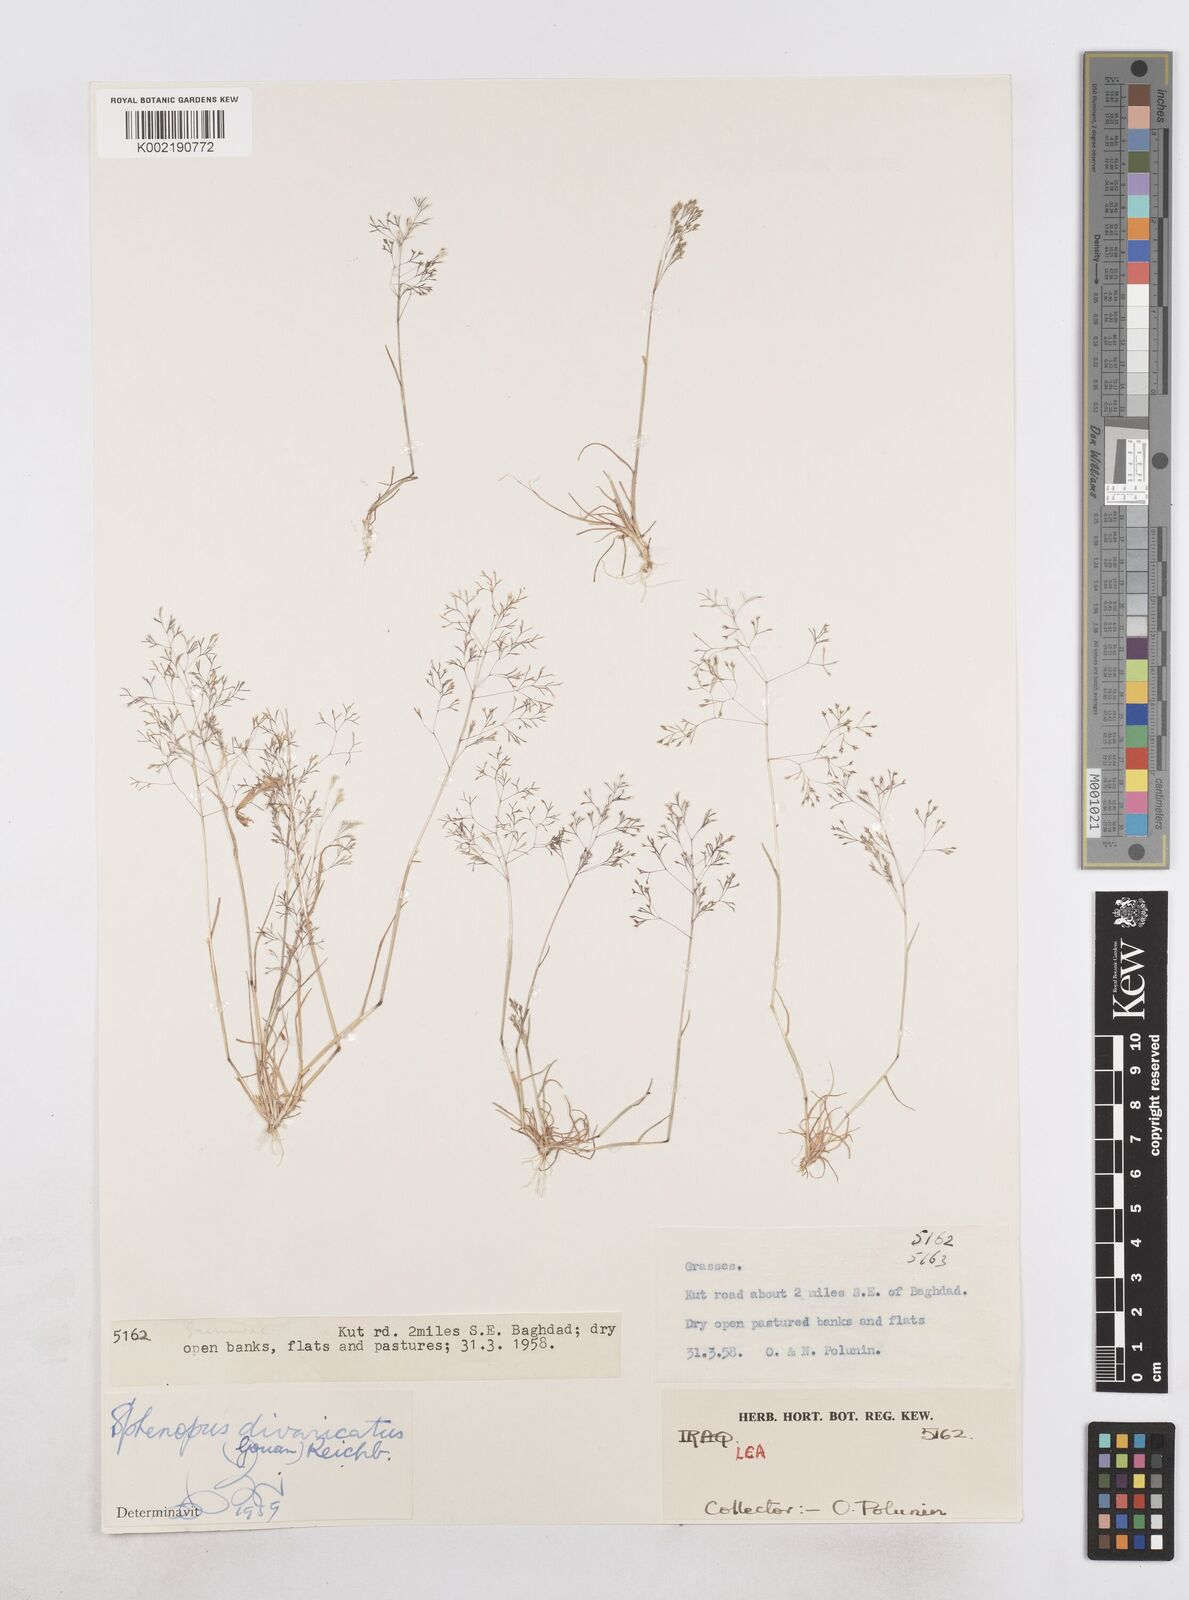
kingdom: Plantae
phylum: Tracheophyta
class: Liliopsida
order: Poales
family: Poaceae
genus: Sphenopus
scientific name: Sphenopus divaricatus
